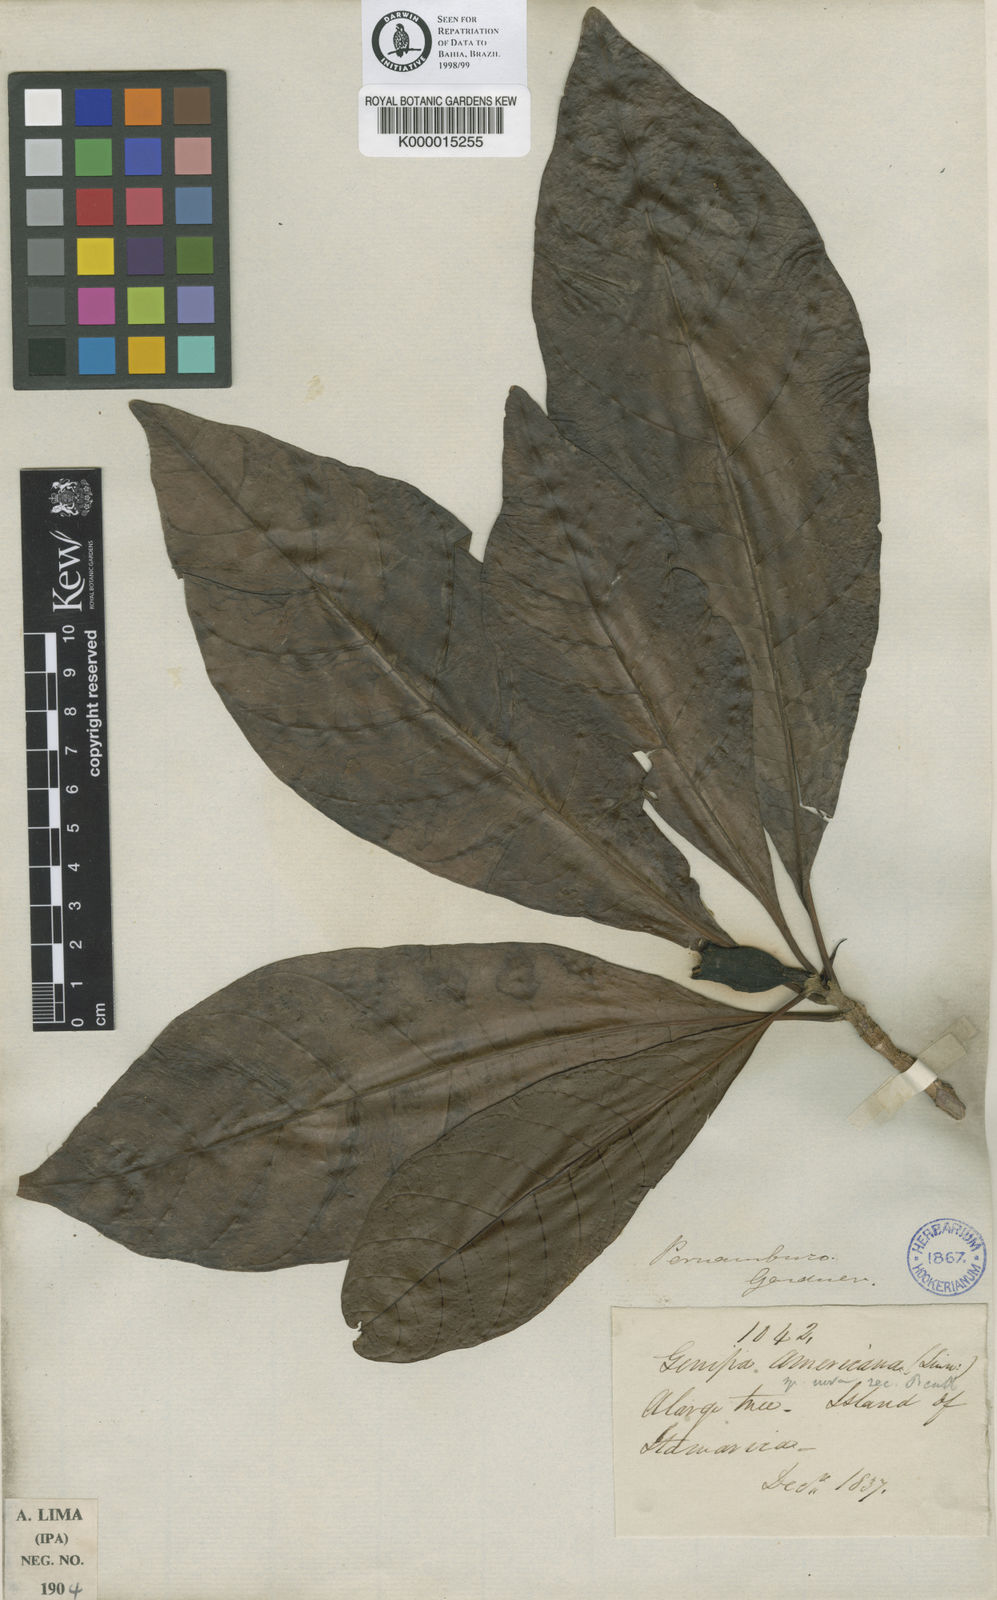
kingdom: Plantae
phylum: Tracheophyta
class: Magnoliopsida
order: Gentianales
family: Rubiaceae
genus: Genipa
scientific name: Genipa americana
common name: Genipap
